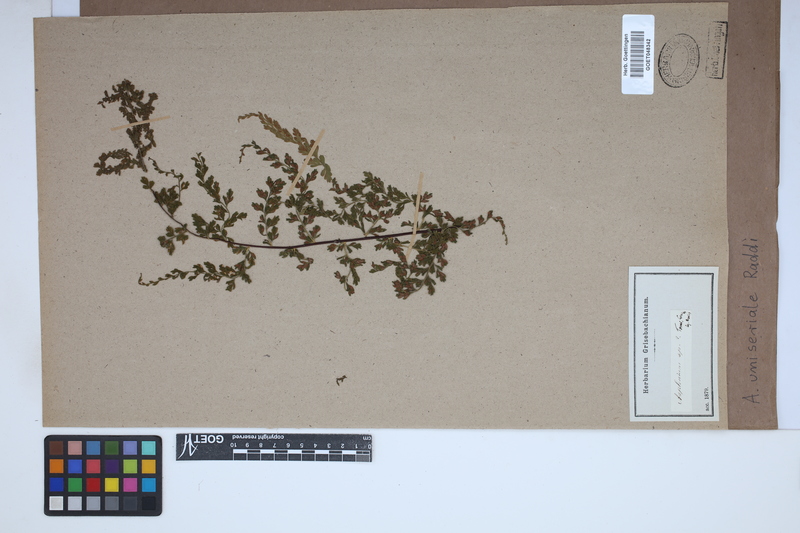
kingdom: Plantae
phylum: Tracheophyta
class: Polypodiopsida
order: Polypodiales
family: Aspleniaceae
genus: Asplenium
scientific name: Asplenium uniseriale
